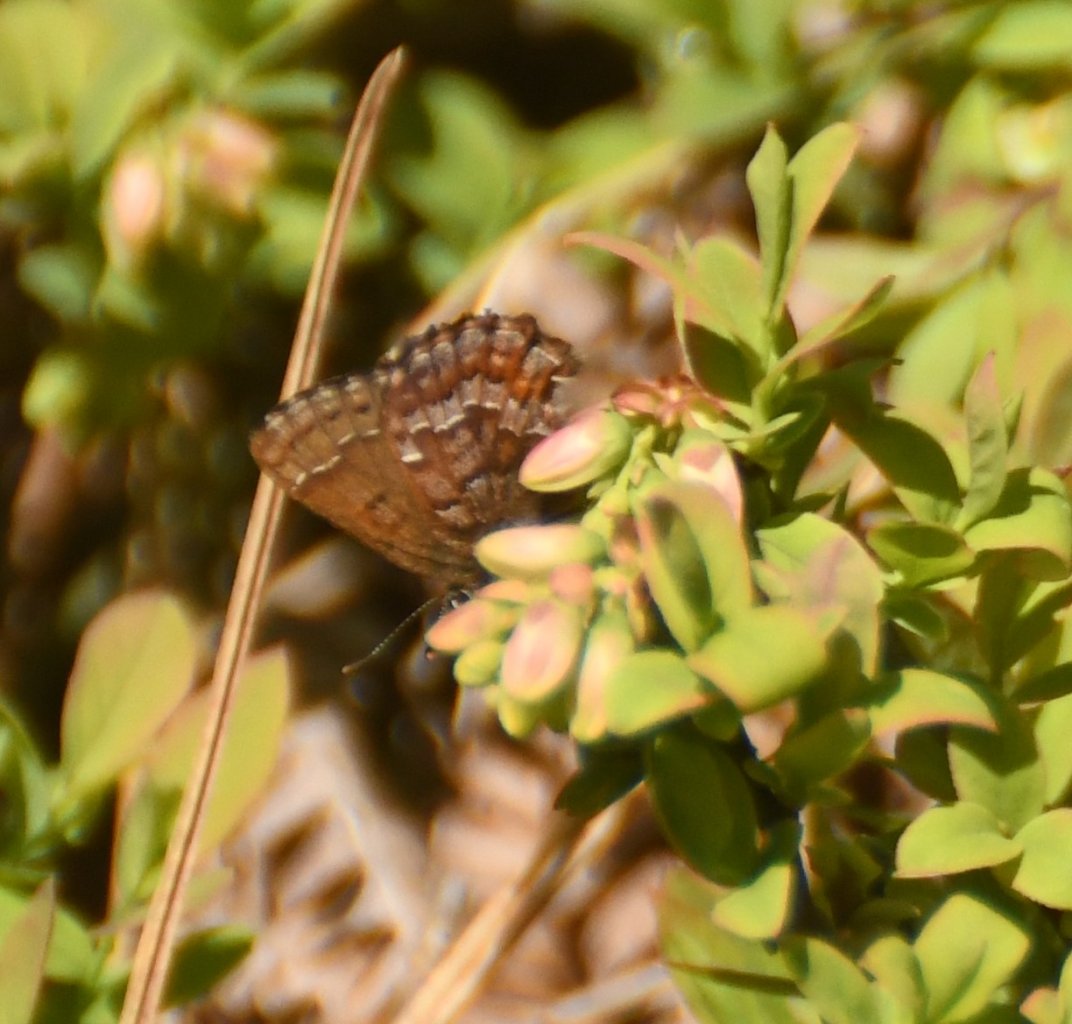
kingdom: Animalia
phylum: Arthropoda
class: Insecta
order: Lepidoptera
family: Lycaenidae
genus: Incisalia
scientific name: Incisalia niphon
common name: Eastern Pine Elfin
